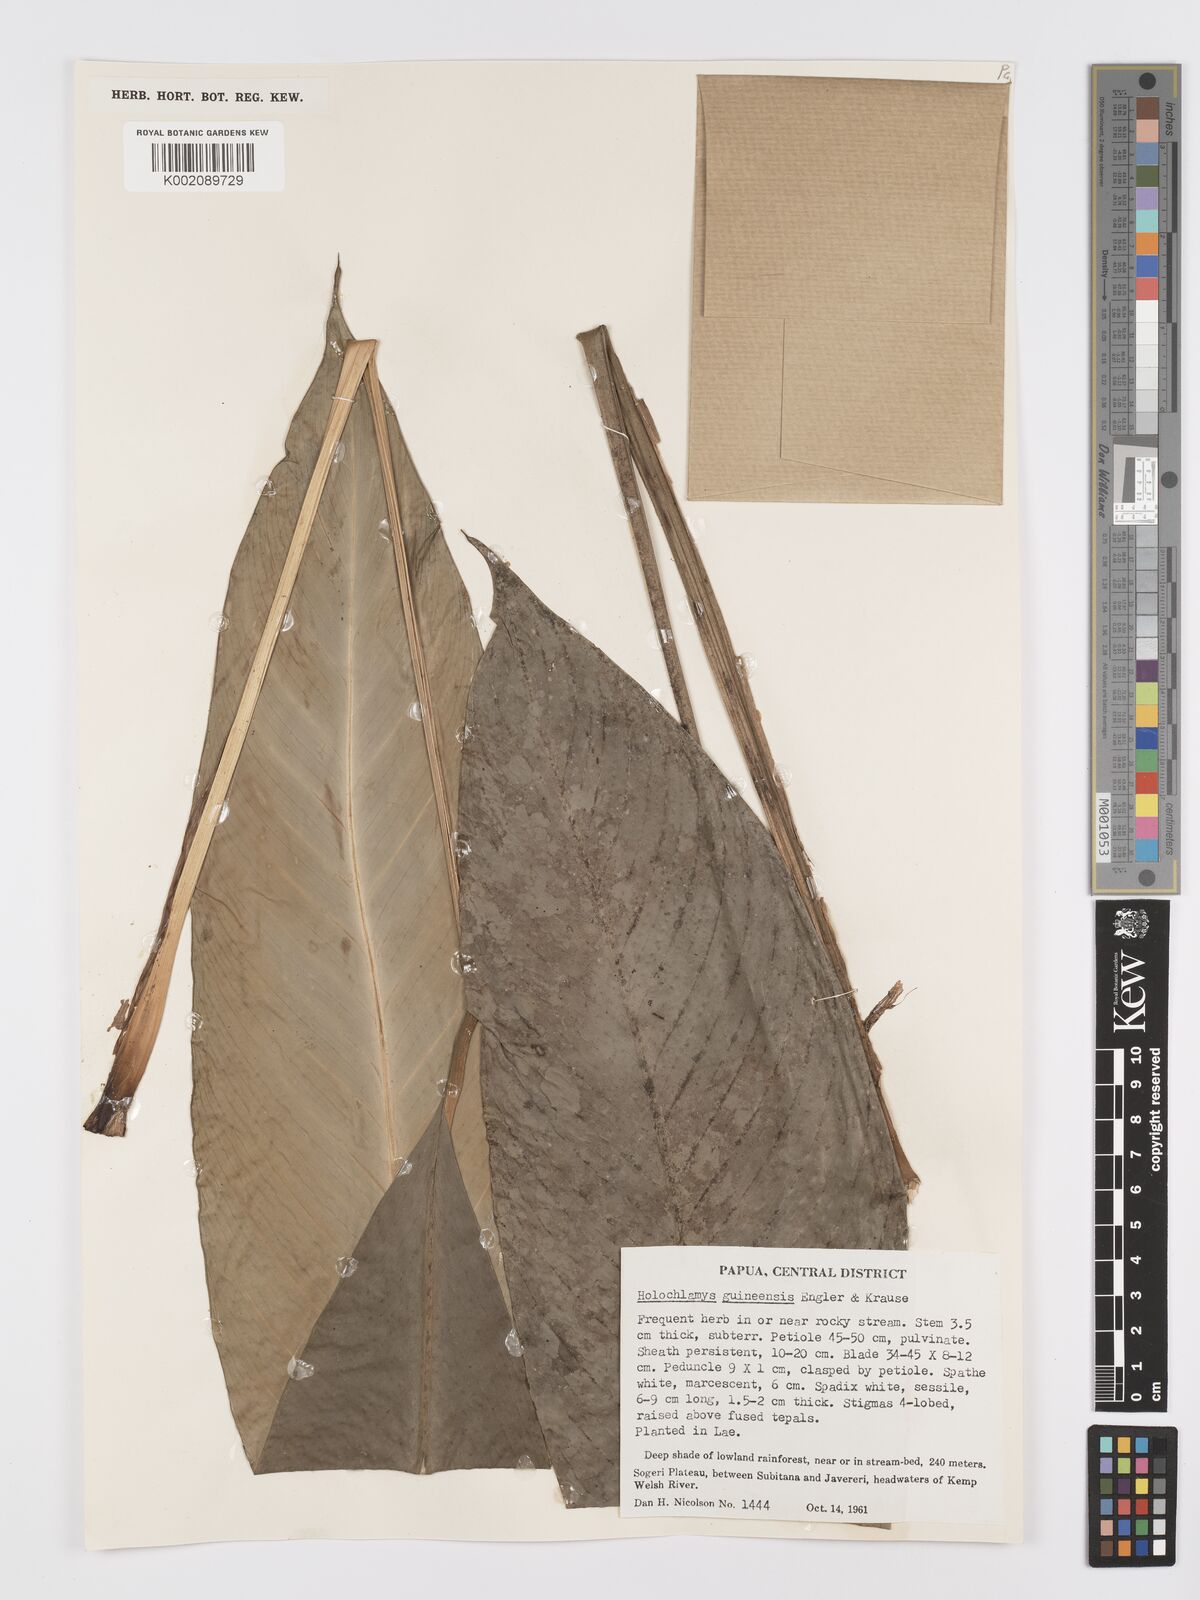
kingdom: Plantae
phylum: Tracheophyta
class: Liliopsida
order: Alismatales
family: Araceae
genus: Holochlamys
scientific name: Holochlamys beccarii
